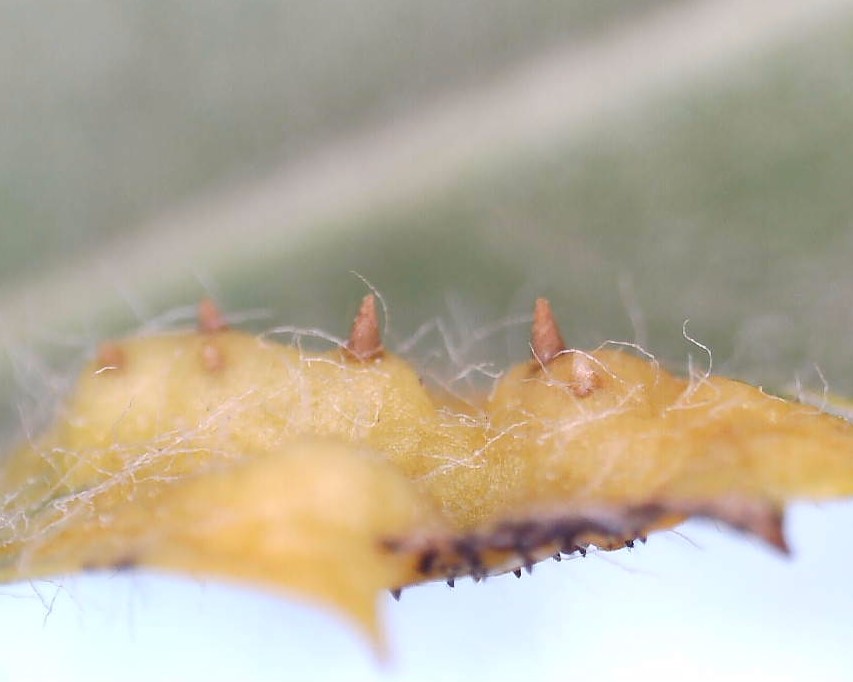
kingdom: Fungi
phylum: Basidiomycota
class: Pucciniomycetes
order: Pucciniales
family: Gymnosporangiaceae
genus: Gymnosporangium
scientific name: Gymnosporangium cornutum
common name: rønnehorn-bævrerust
